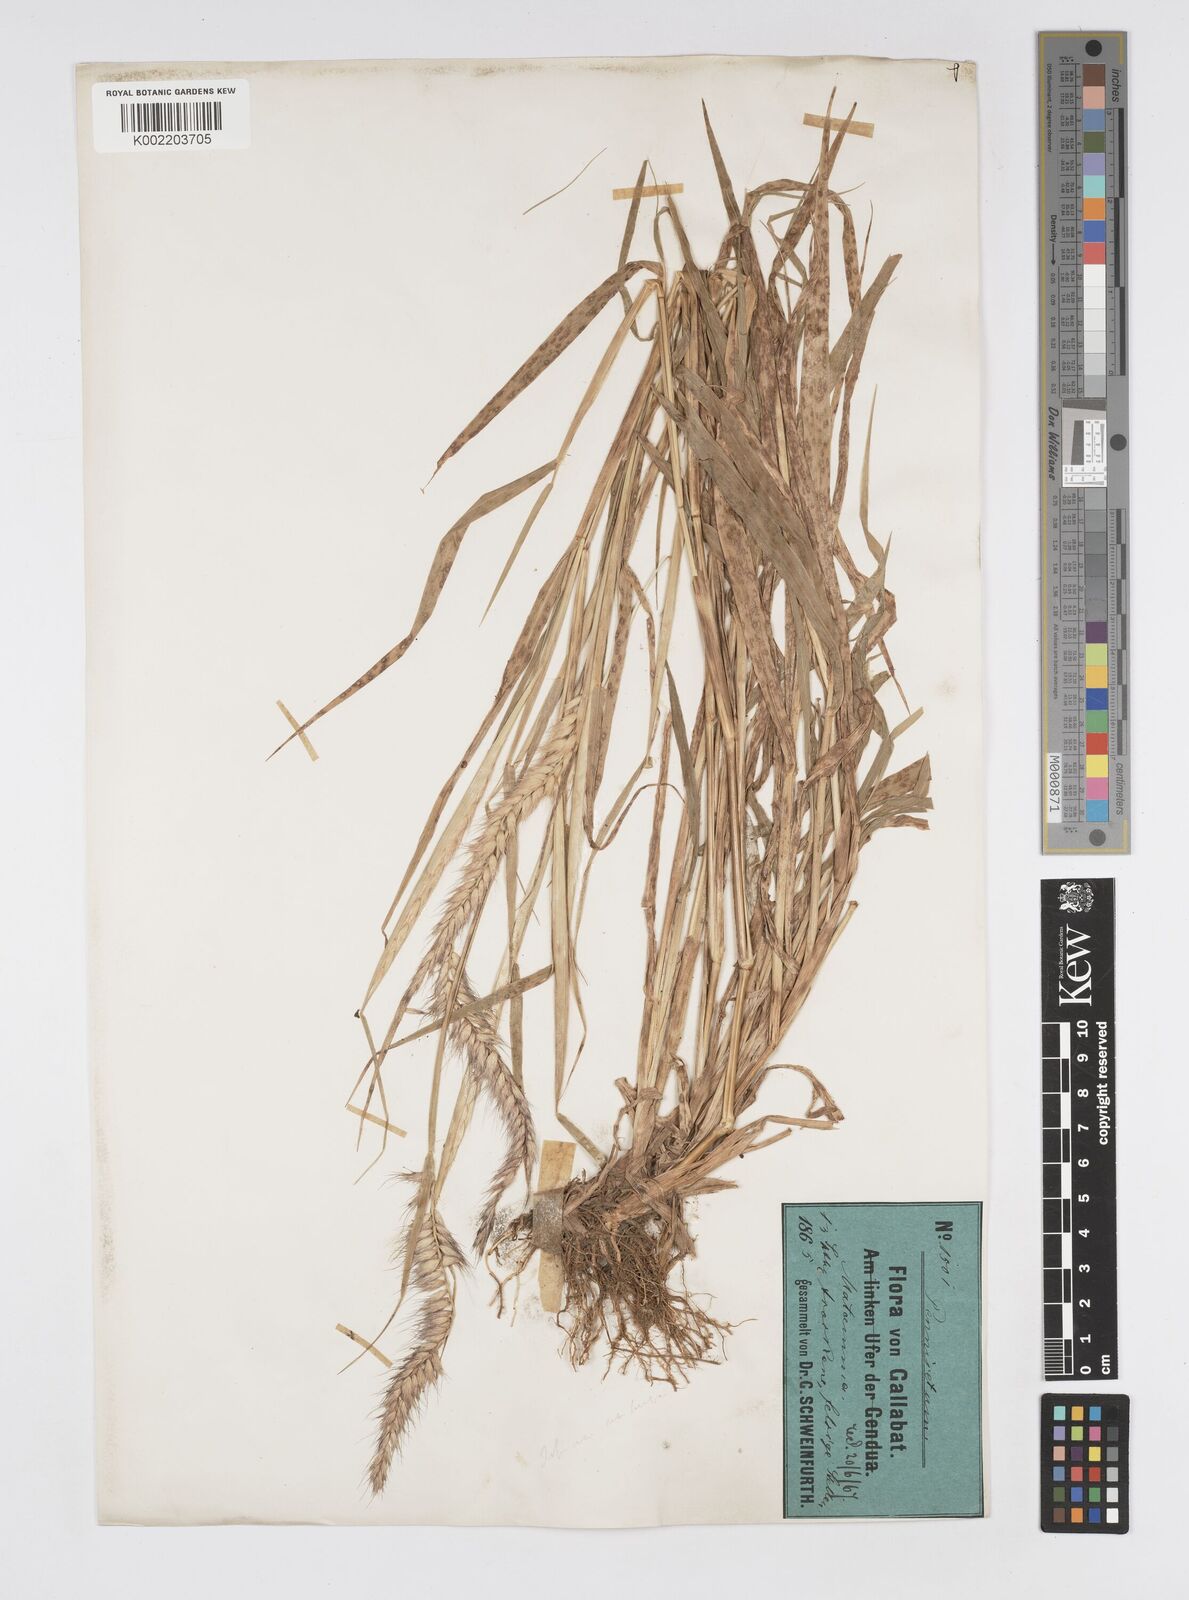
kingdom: Plantae
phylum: Tracheophyta
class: Liliopsida
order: Poales
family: Poaceae
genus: Cenchrus
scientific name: Cenchrus pedicellatus
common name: Hairy fountain grass
